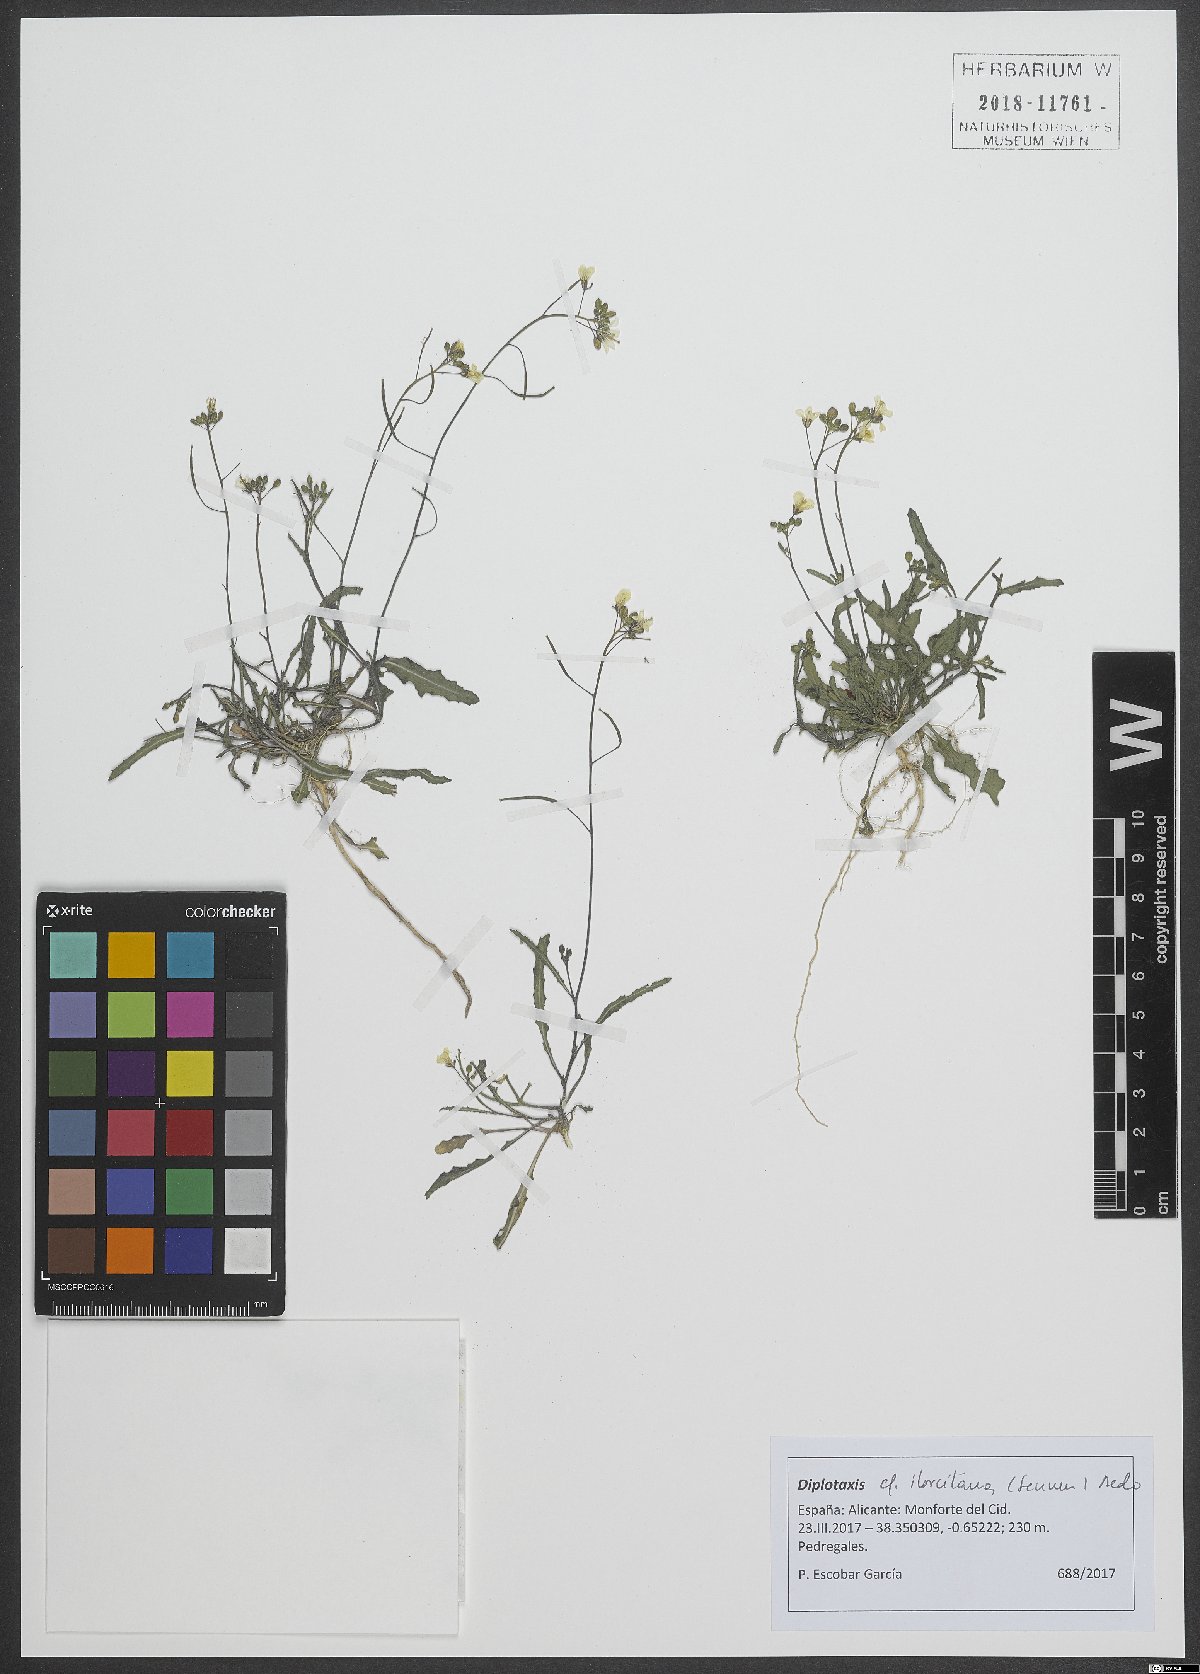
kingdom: Plantae
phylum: Tracheophyta
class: Magnoliopsida
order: Brassicales
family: Brassicaceae
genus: Diplotaxis
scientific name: Diplotaxis ilorcitana
